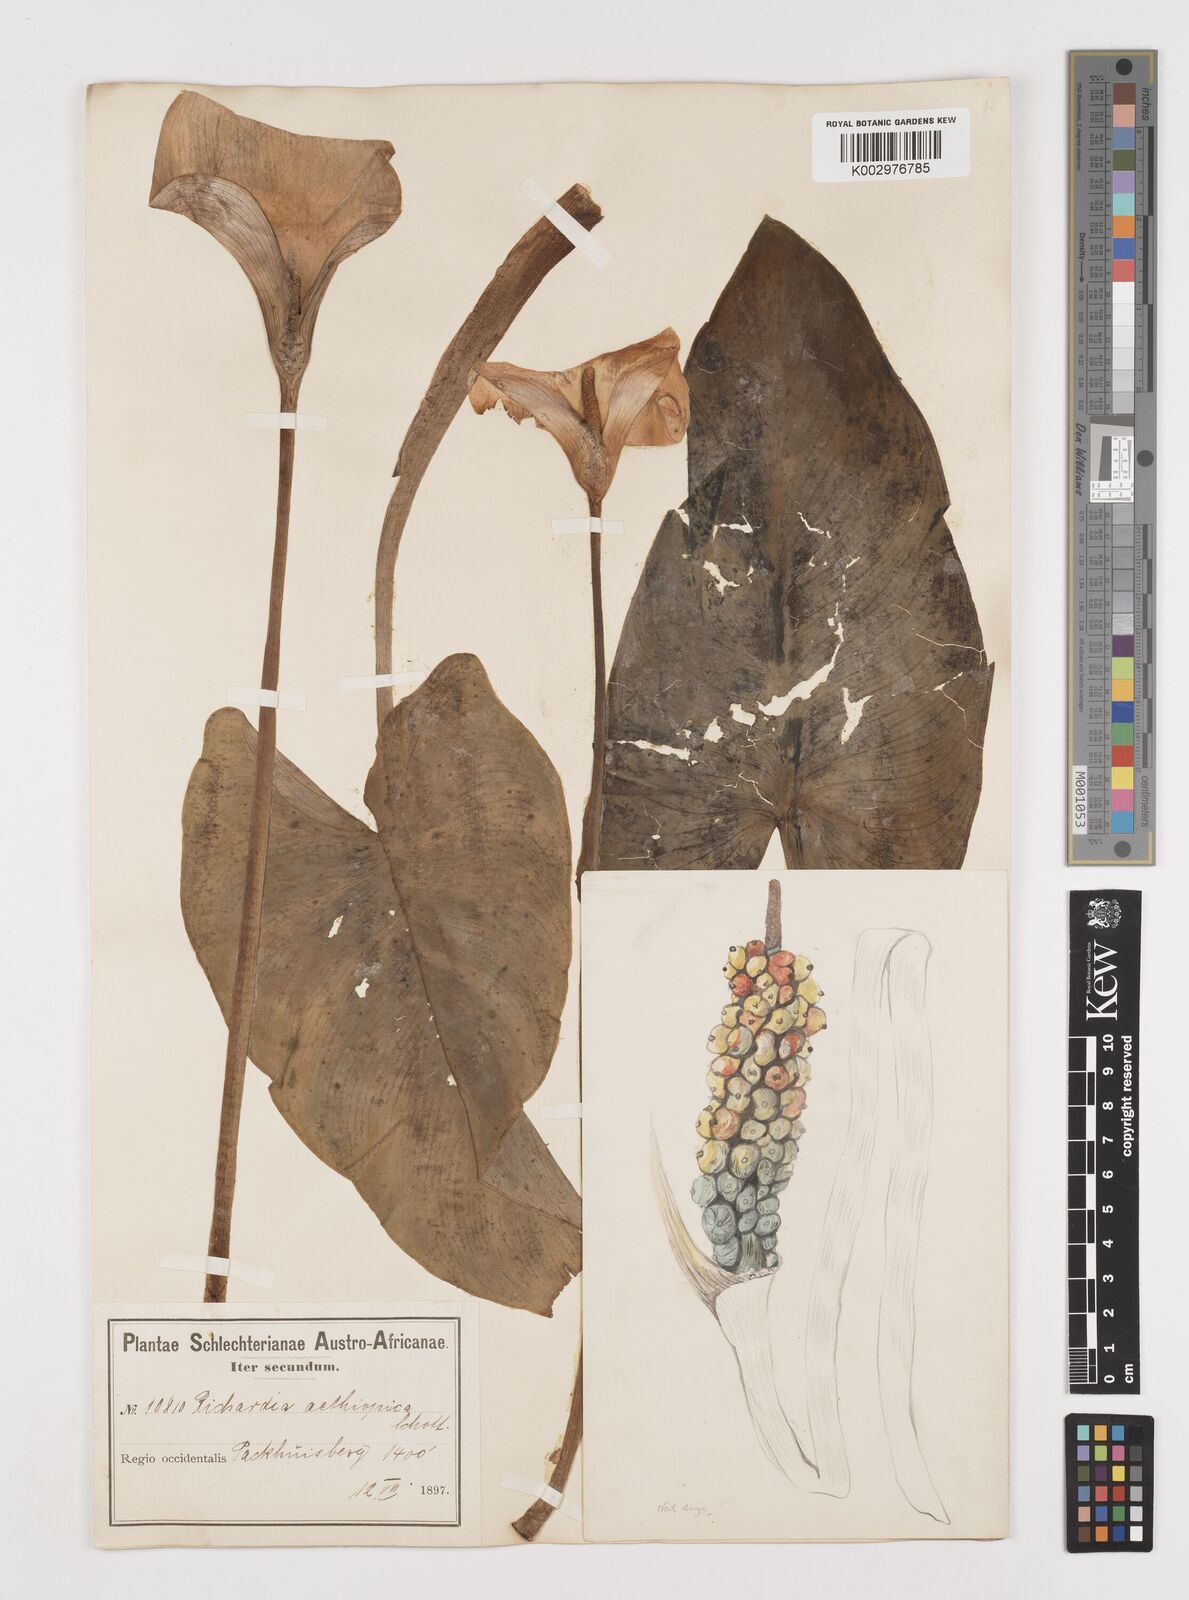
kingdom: Plantae
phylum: Tracheophyta
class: Liliopsida
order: Alismatales
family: Araceae
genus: Zantedeschia
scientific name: Zantedeschia aethiopica
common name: Altar-lily
